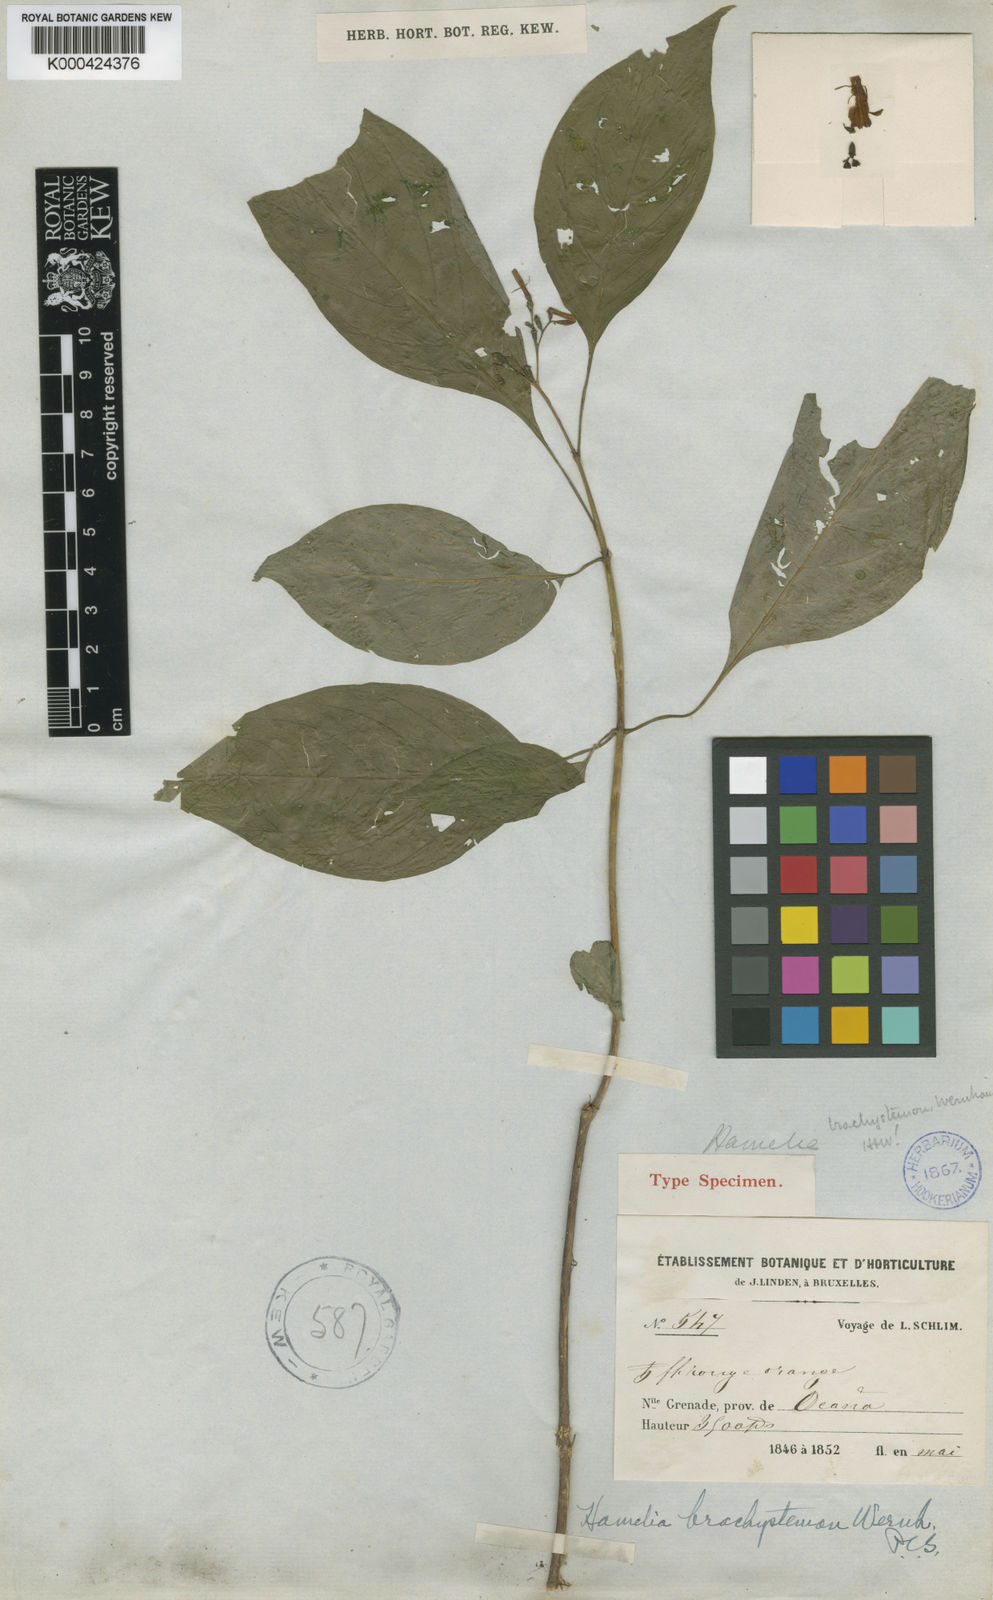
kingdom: Plantae
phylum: Tracheophyta
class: Magnoliopsida
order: Gentianales
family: Rubiaceae
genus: Hamelia
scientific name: Hamelia patens
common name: Redhead
